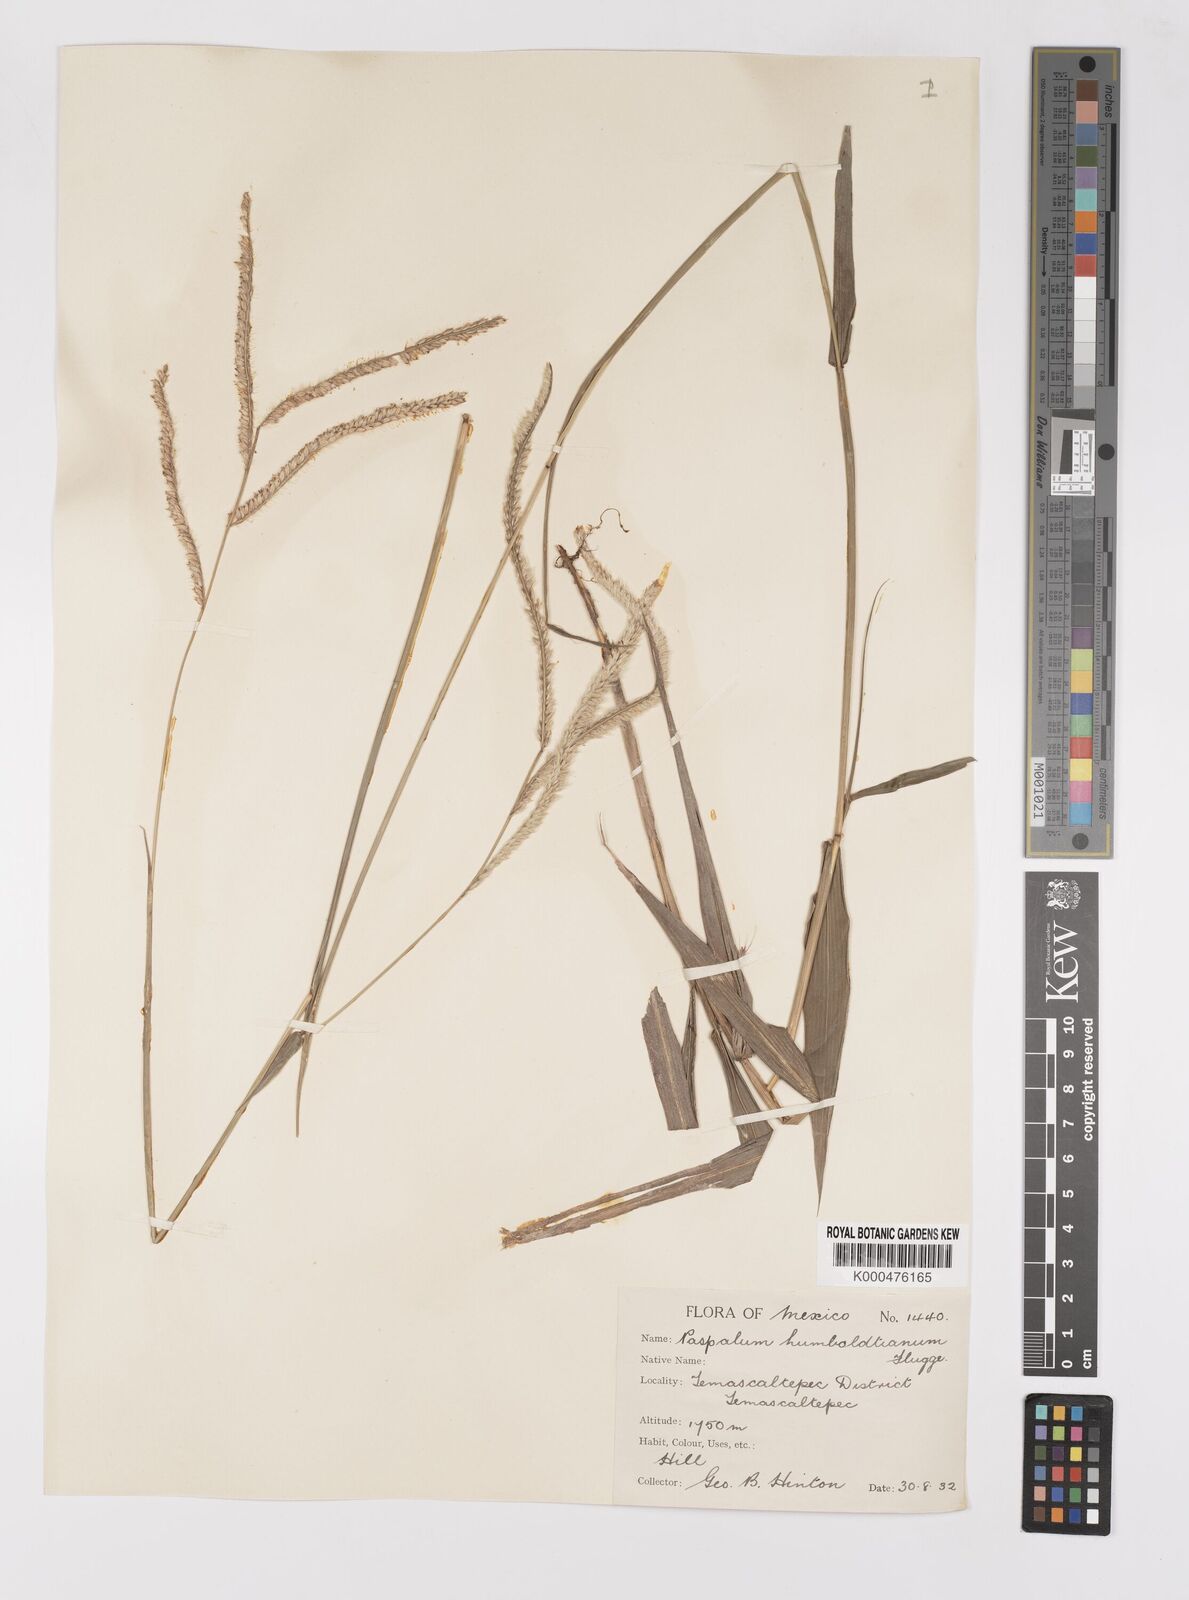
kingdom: Plantae
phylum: Tracheophyta
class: Liliopsida
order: Poales
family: Poaceae
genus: Paspalum
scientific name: Paspalum
